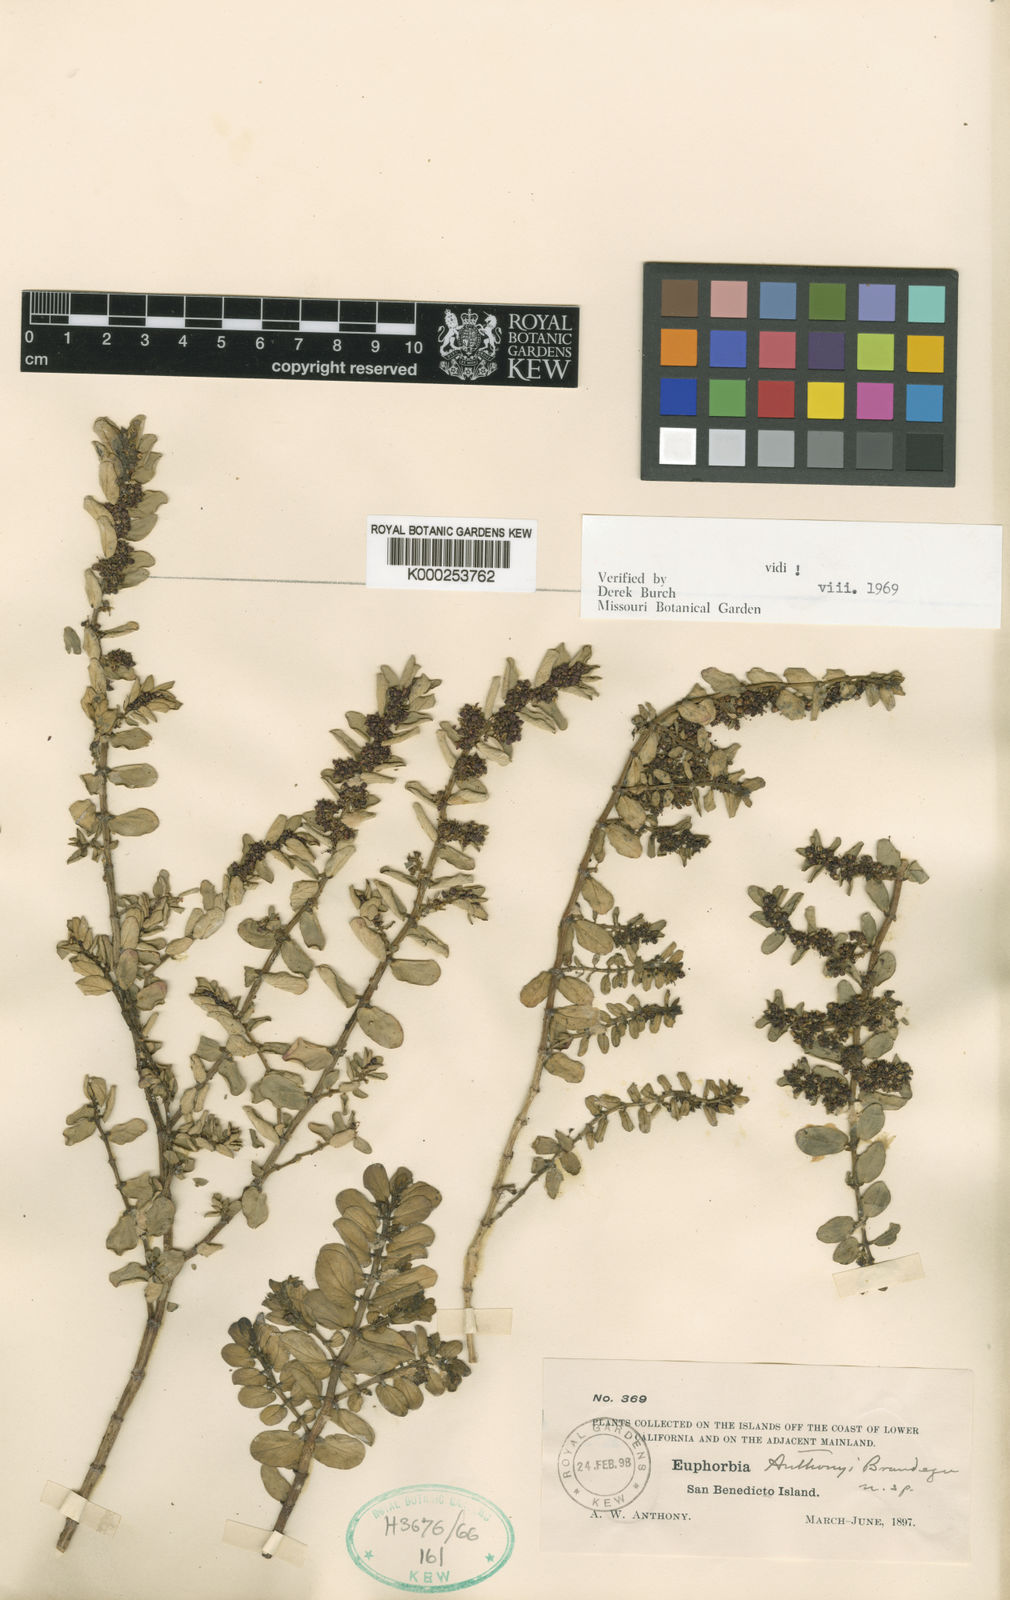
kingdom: Plantae
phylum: Tracheophyta
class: Magnoliopsida
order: Malpighiales
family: Euphorbiaceae
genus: Euphorbia
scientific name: Euphorbia anthonyi
